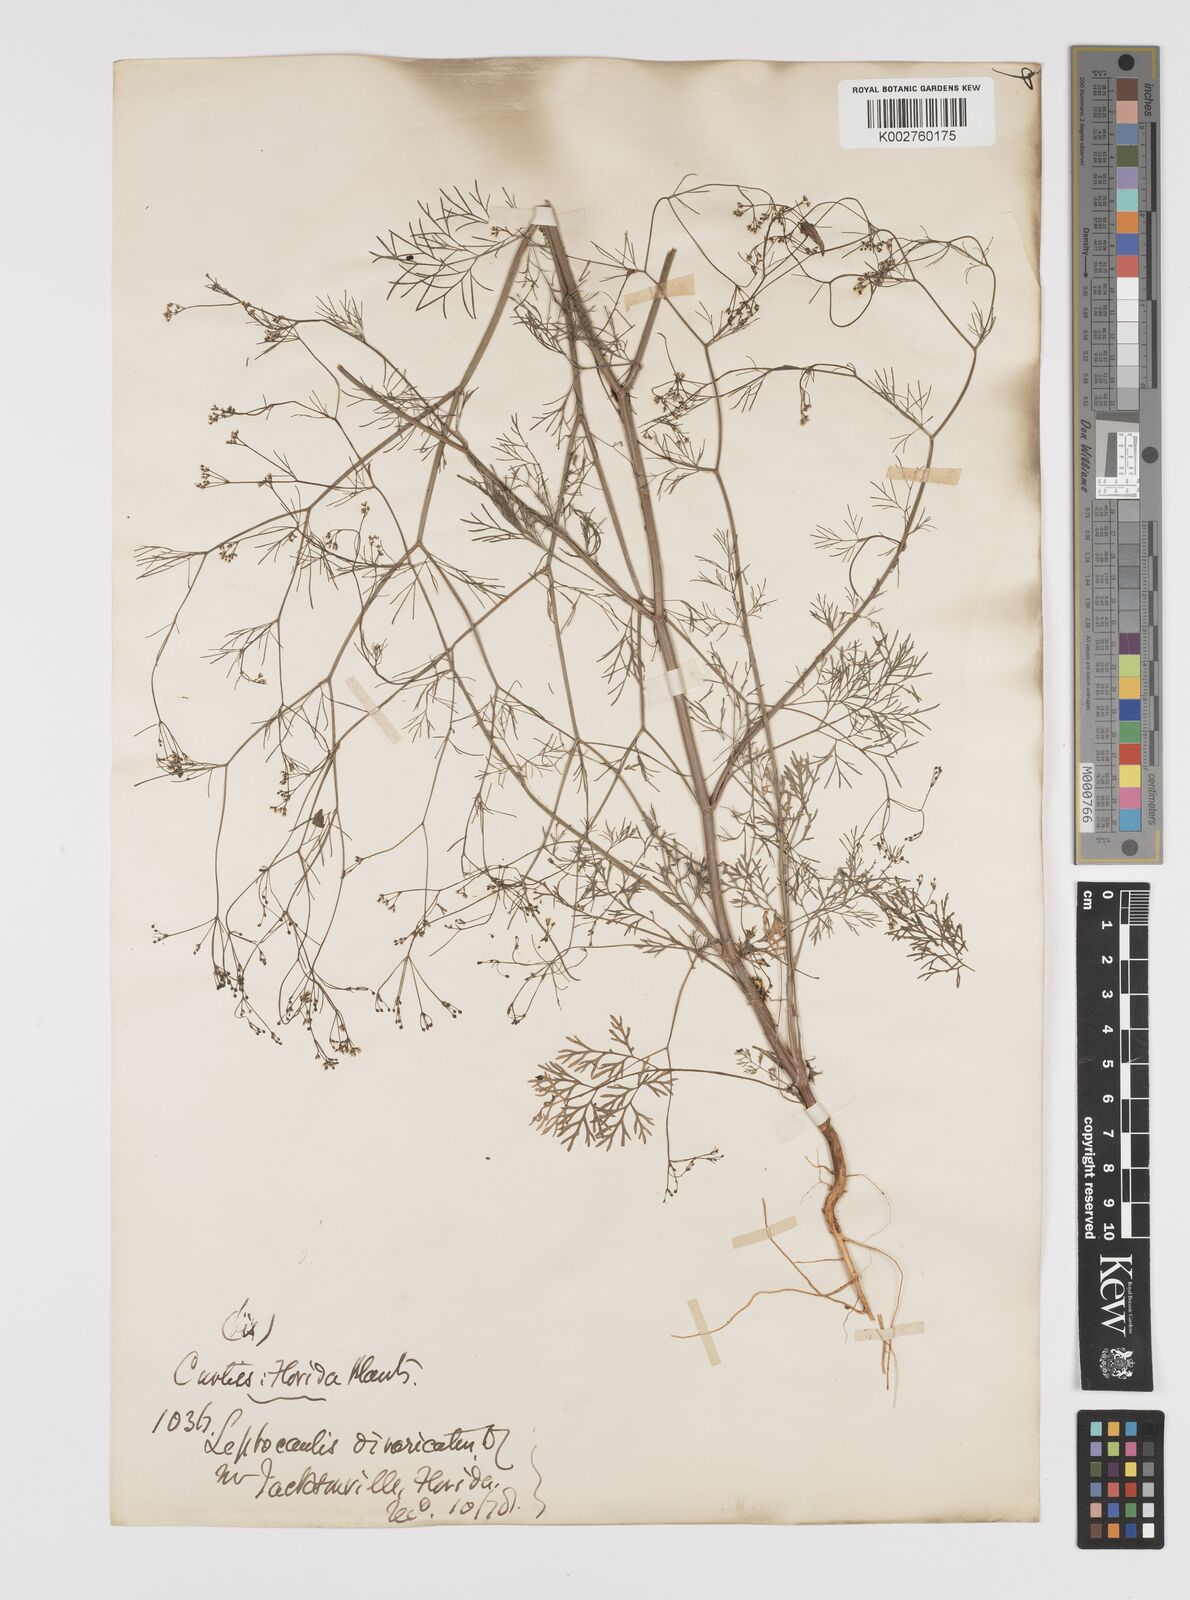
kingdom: Plantae
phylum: Tracheophyta
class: Magnoliopsida
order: Apiales
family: Apiaceae
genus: Spermolepis
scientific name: Spermolepis divaricata
